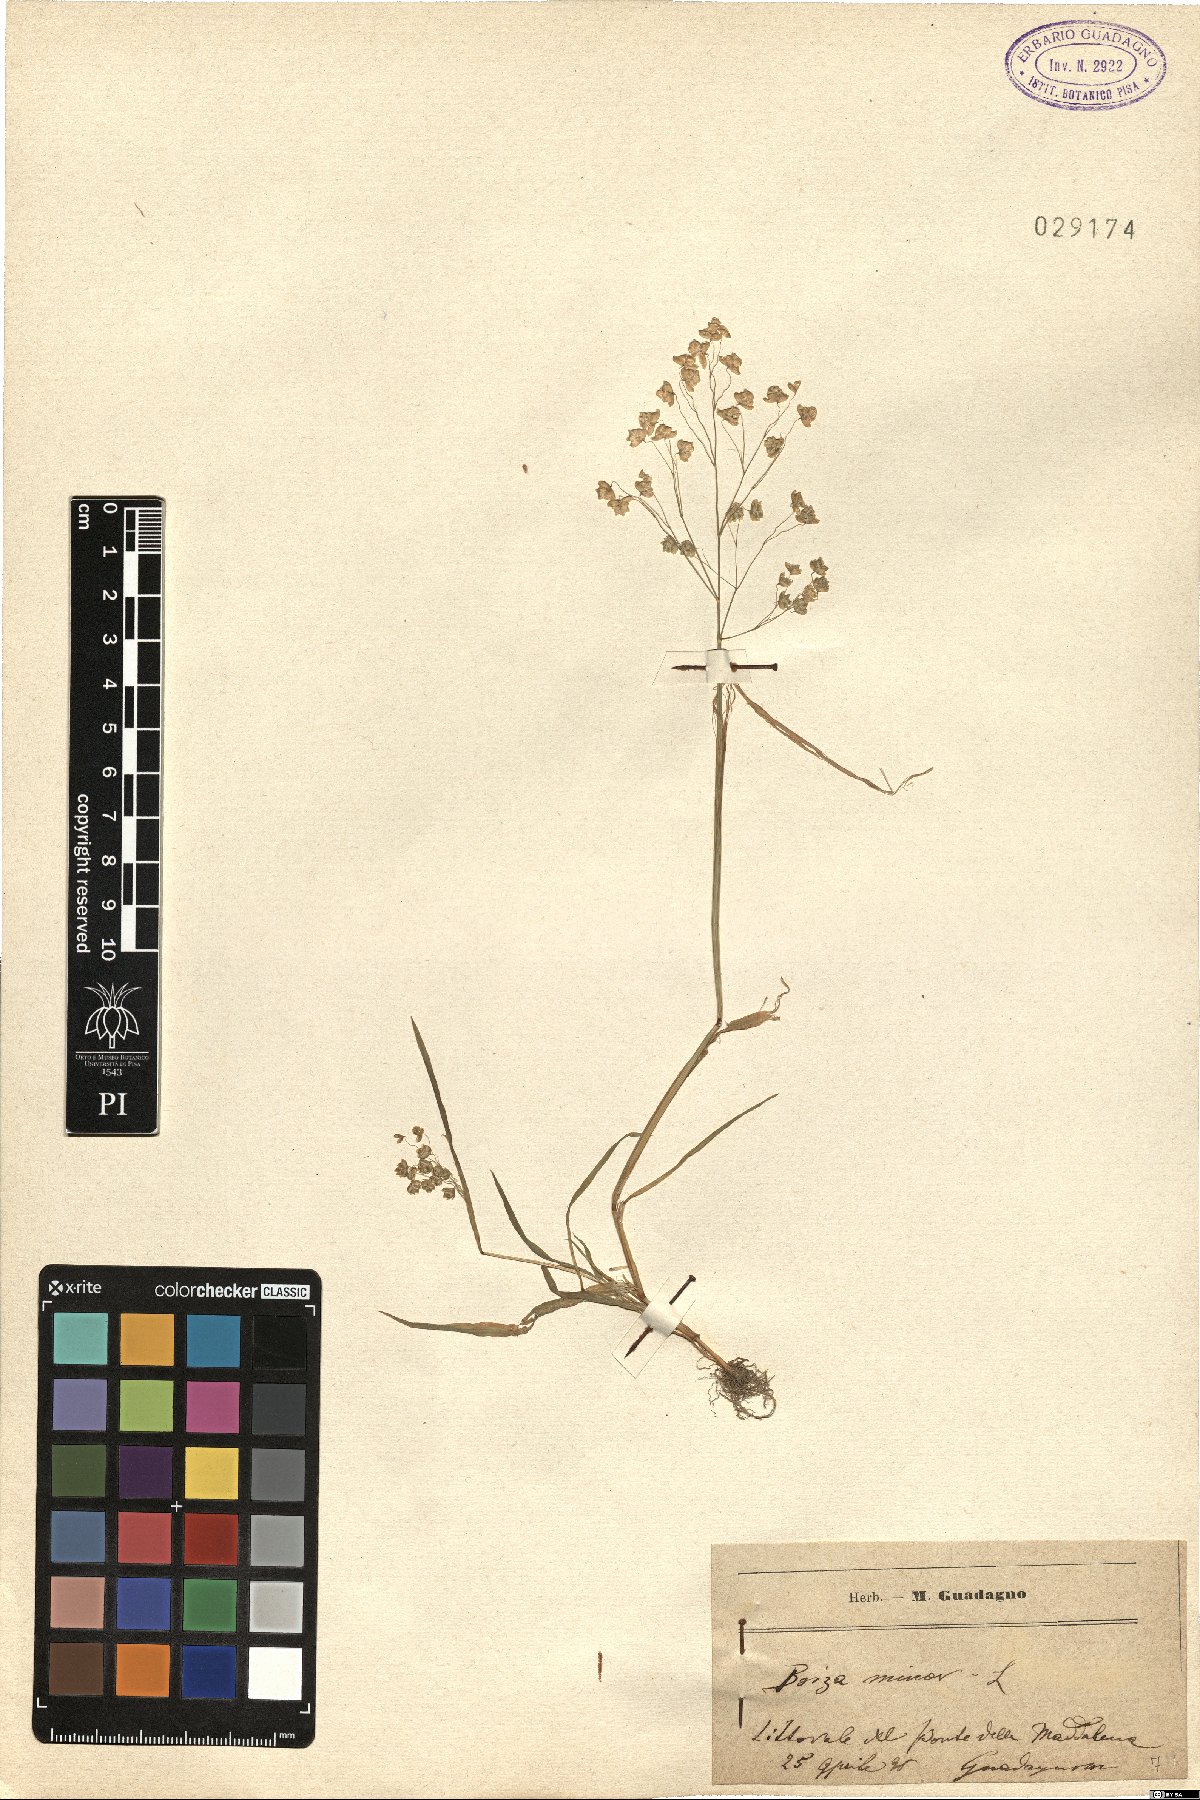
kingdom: Plantae
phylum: Tracheophyta
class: Liliopsida
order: Poales
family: Poaceae
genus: Briza
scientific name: Briza minor
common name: Lesser quaking-grass
